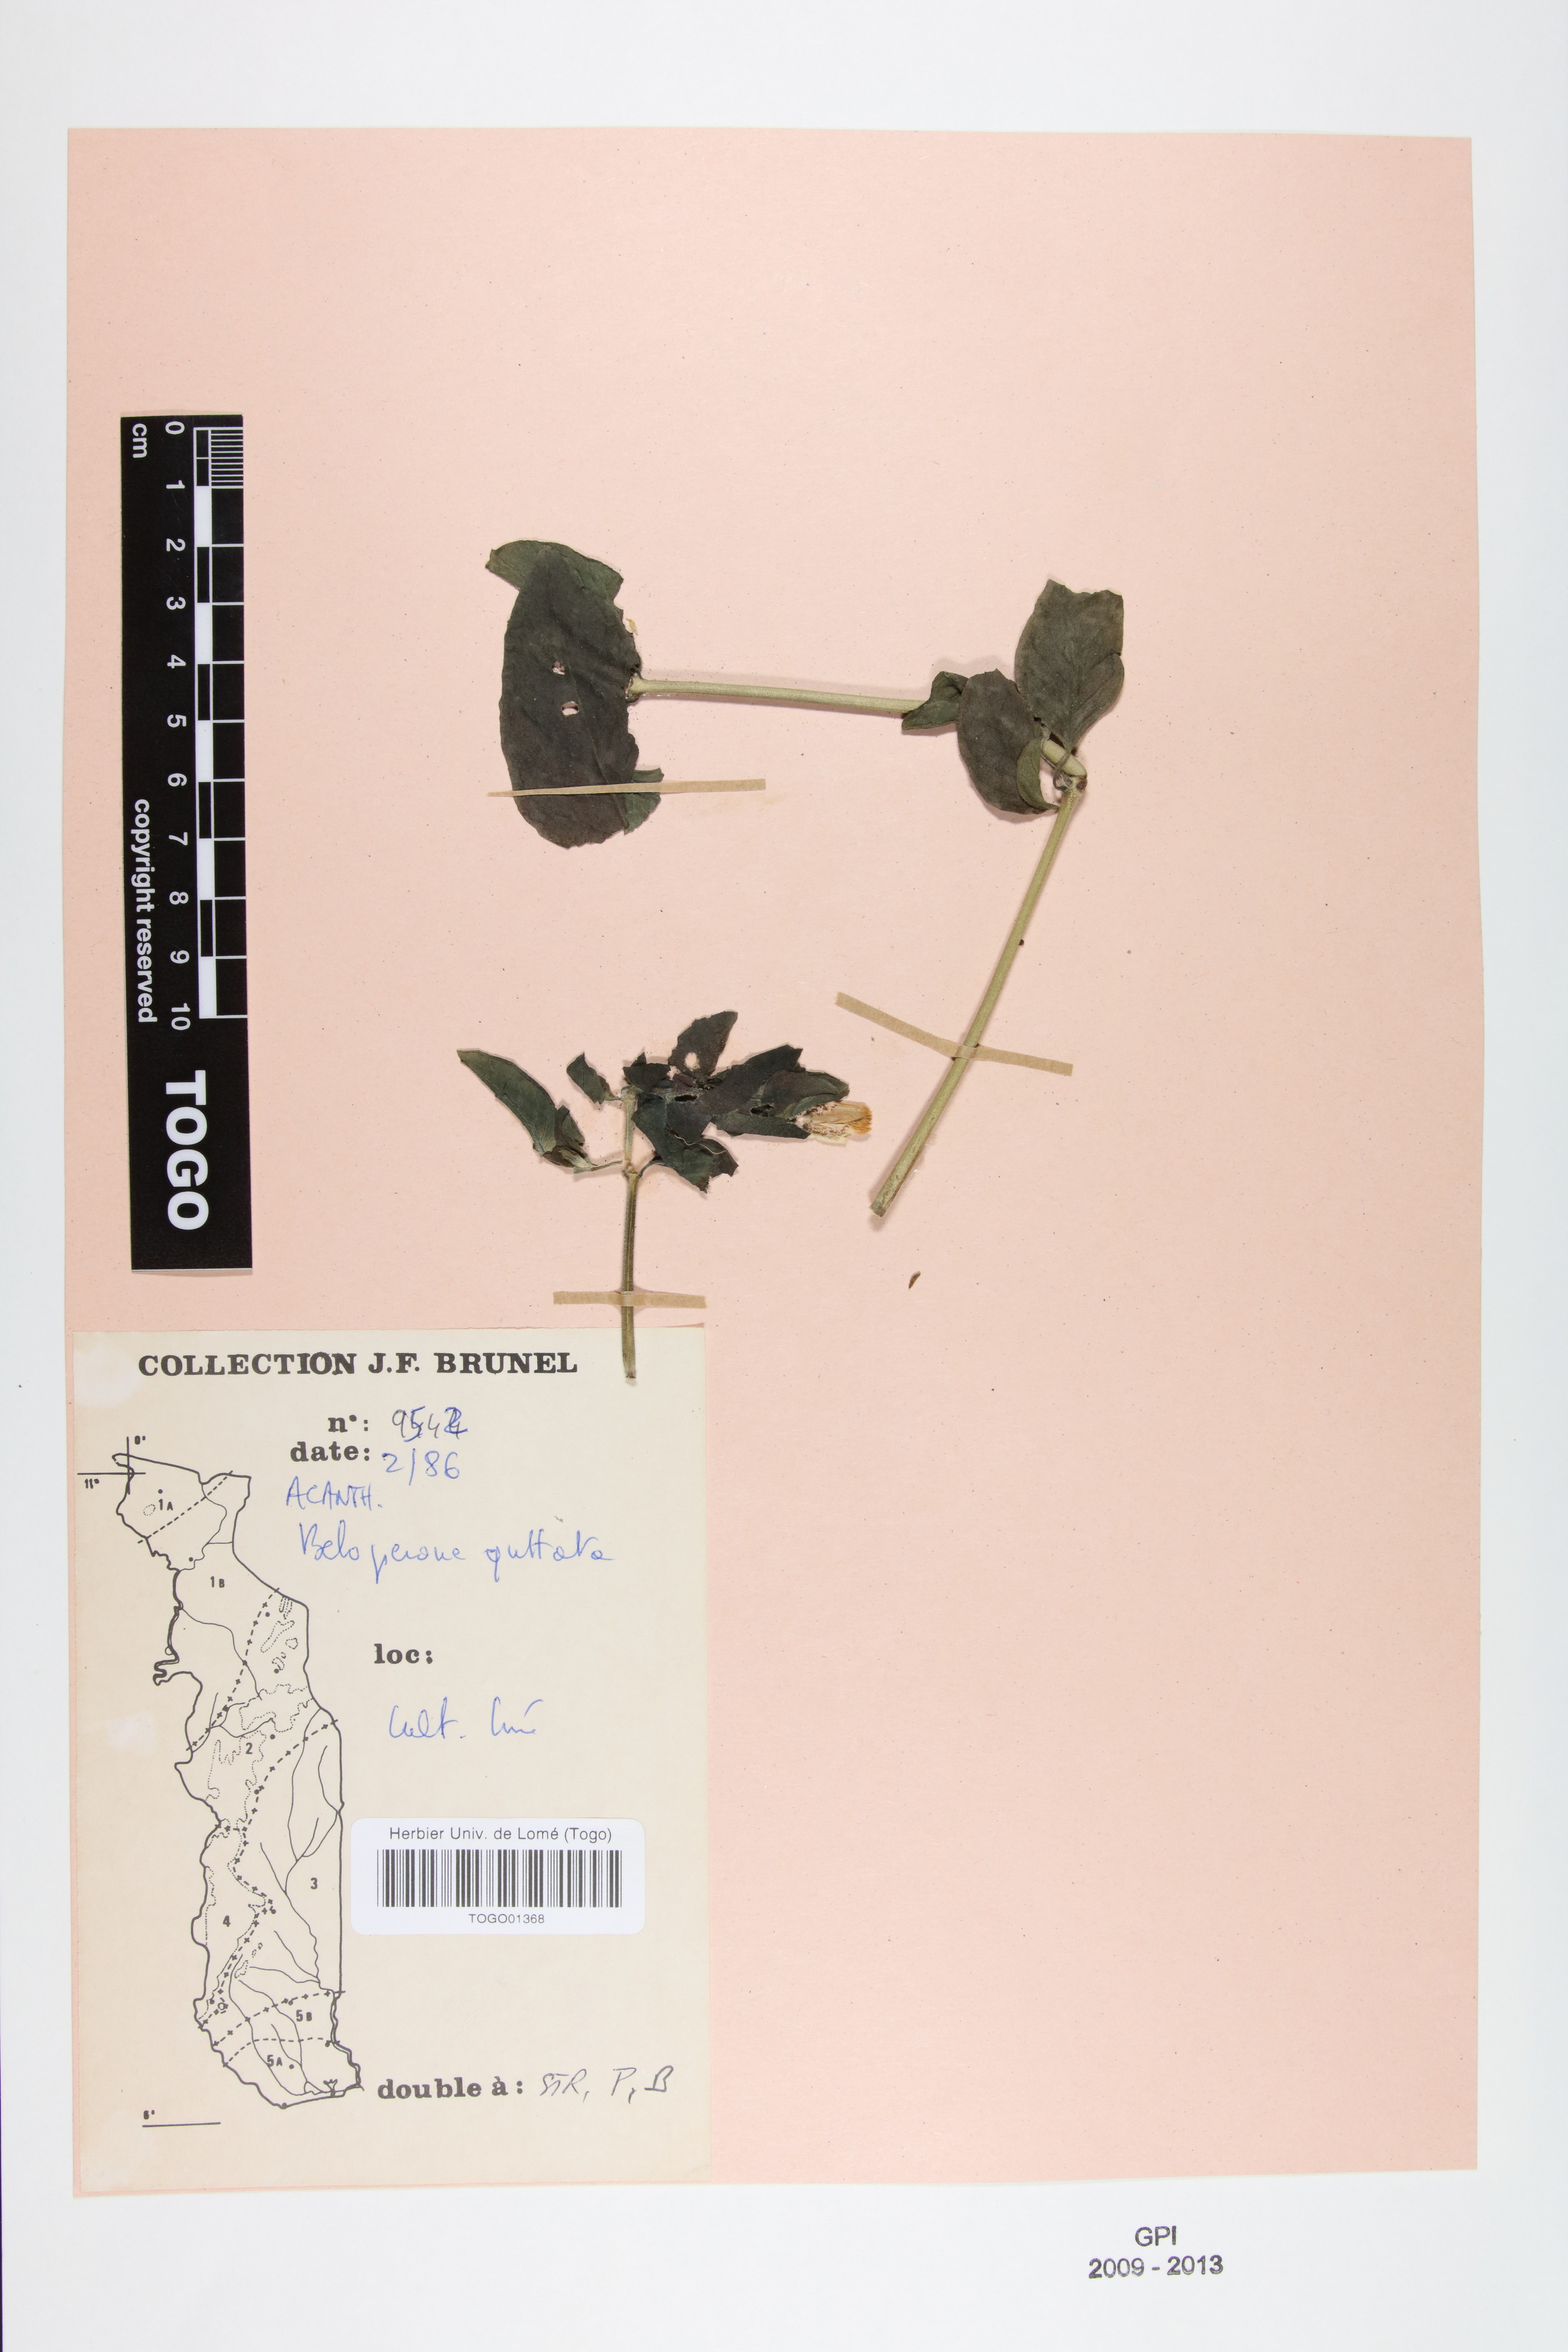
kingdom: Plantae
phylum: Tracheophyta
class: Magnoliopsida
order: Lamiales
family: Acanthaceae
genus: Justicia
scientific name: Justicia brandegeeana
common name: Shrimpplant
